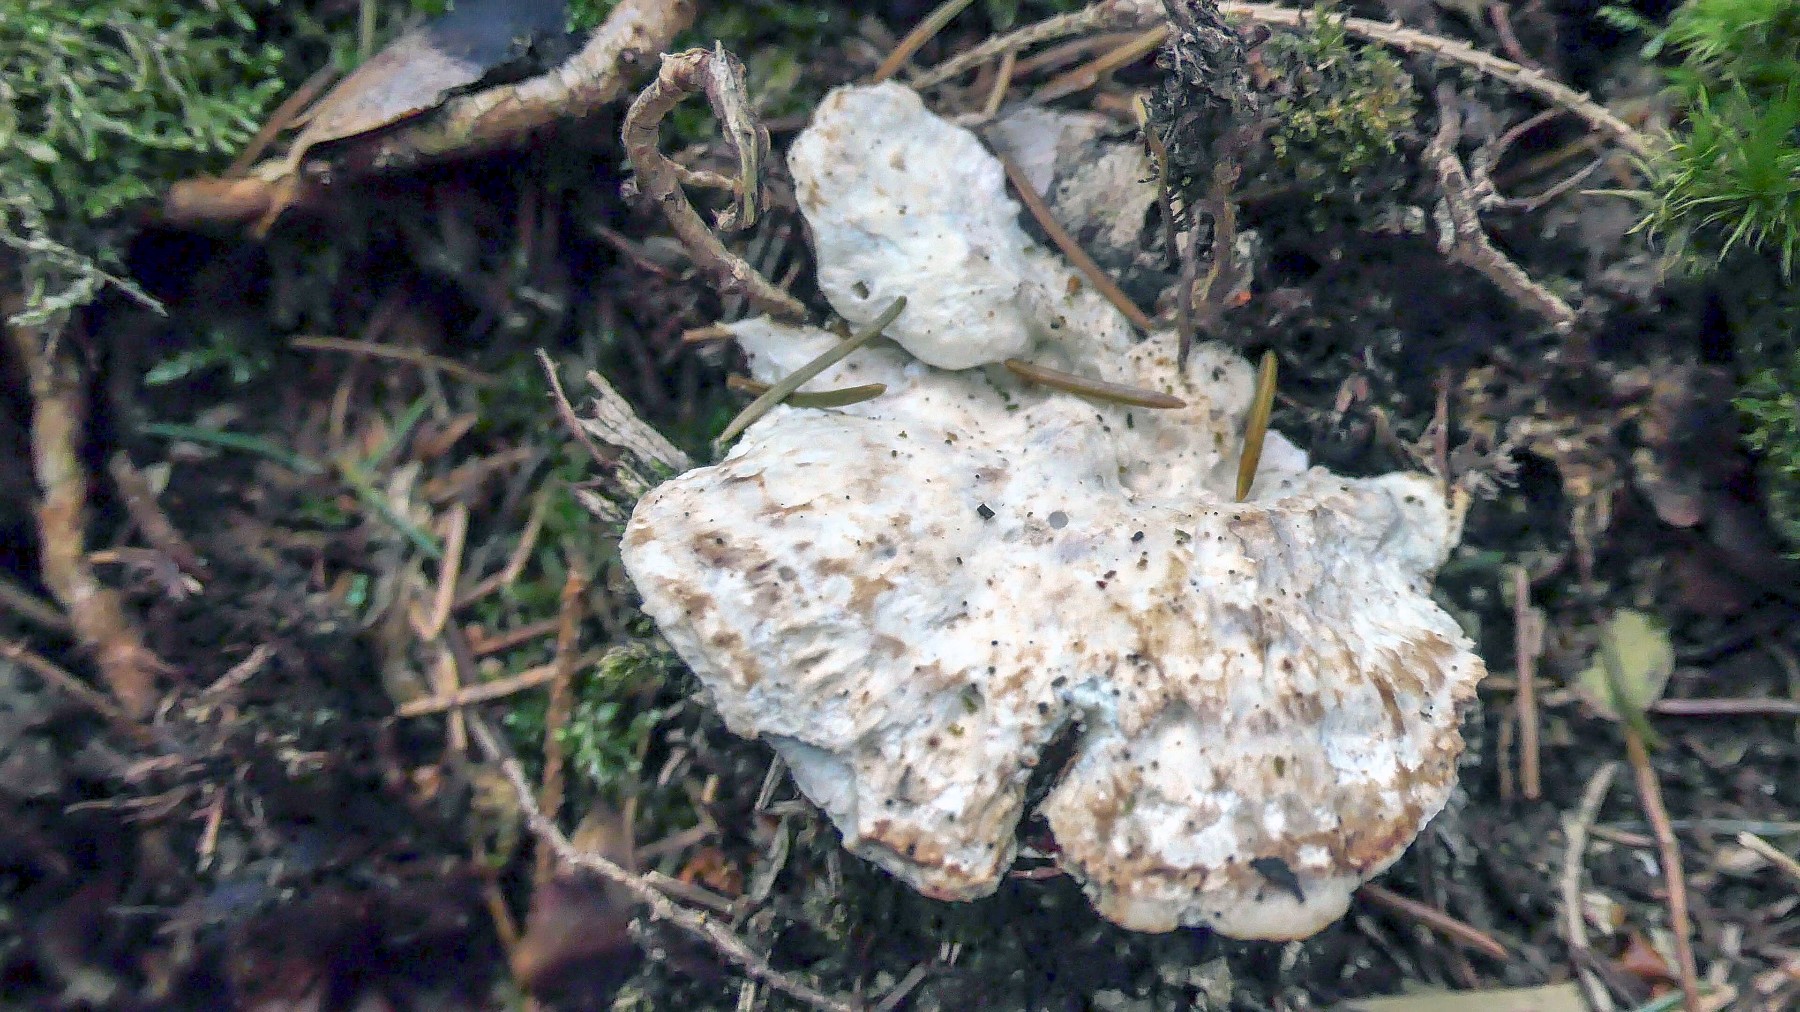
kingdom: Fungi
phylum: Basidiomycota
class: Agaricomycetes
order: Polyporales
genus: Calcipostia
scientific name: Calcipostia guttulata
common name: dråbe-kødporesvamp
